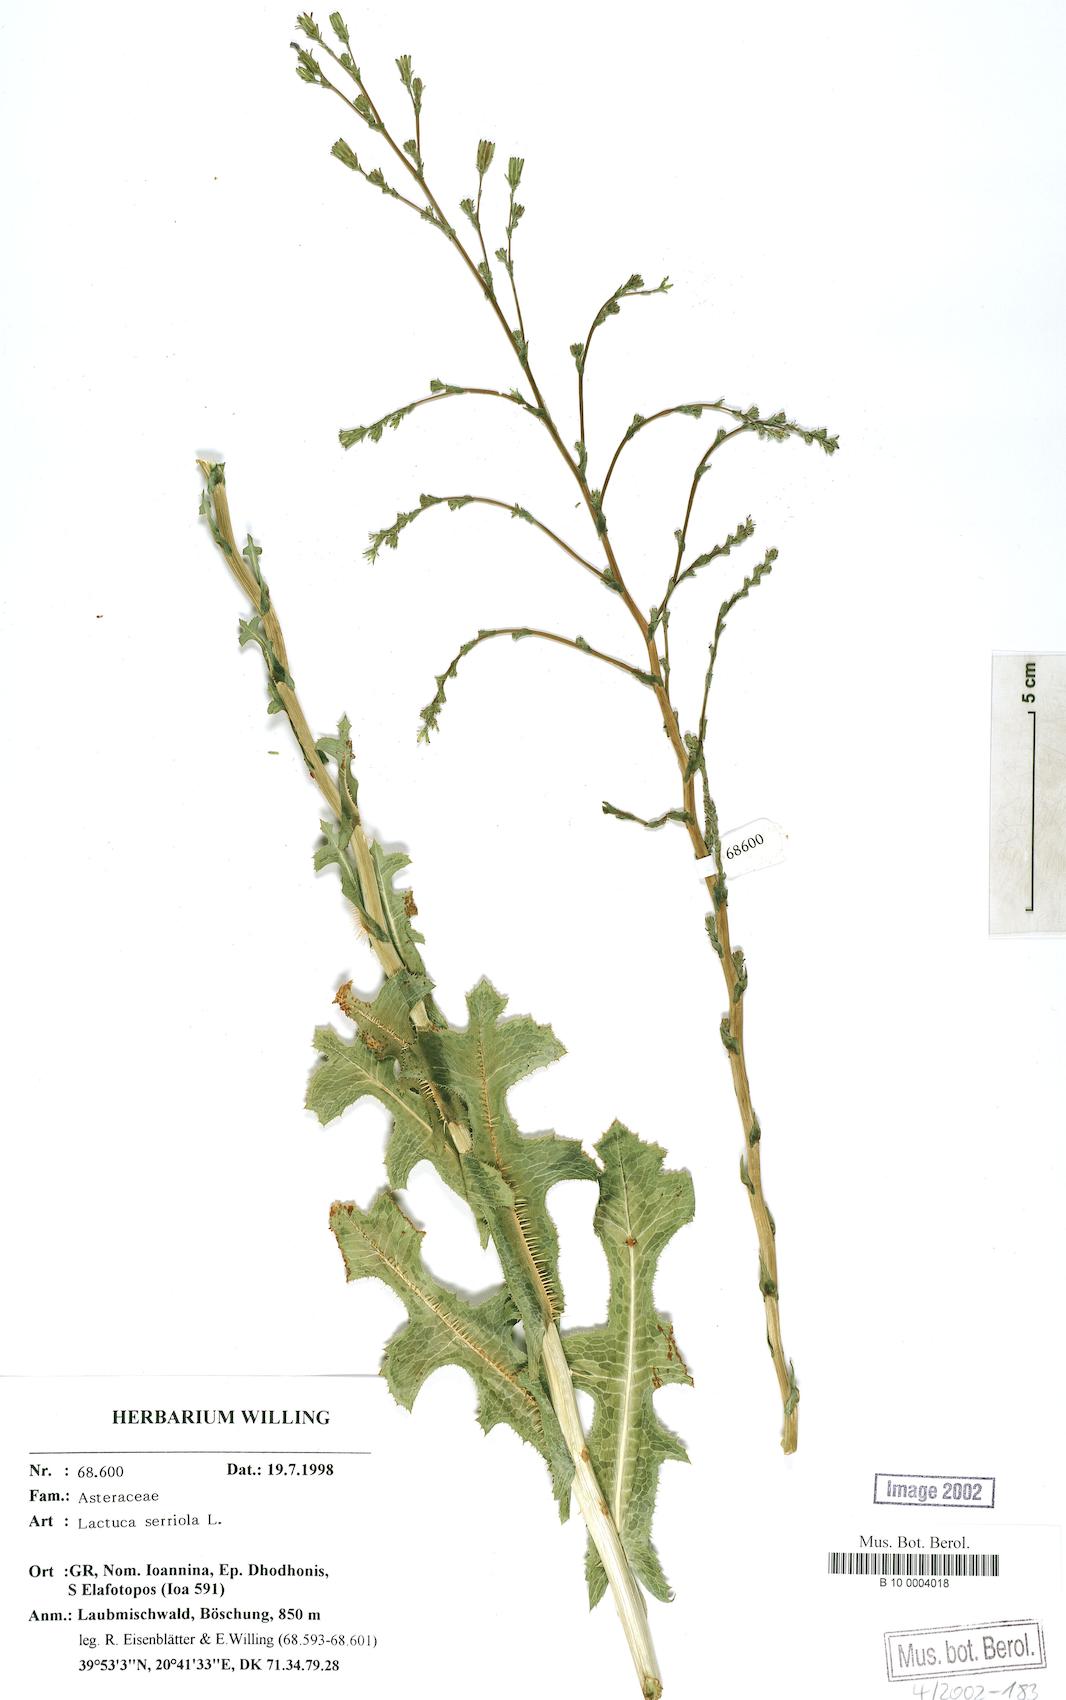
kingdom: Plantae
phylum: Tracheophyta
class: Magnoliopsida
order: Asterales
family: Asteraceae
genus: Lactuca
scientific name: Lactuca serriola
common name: Prickly lettuce
